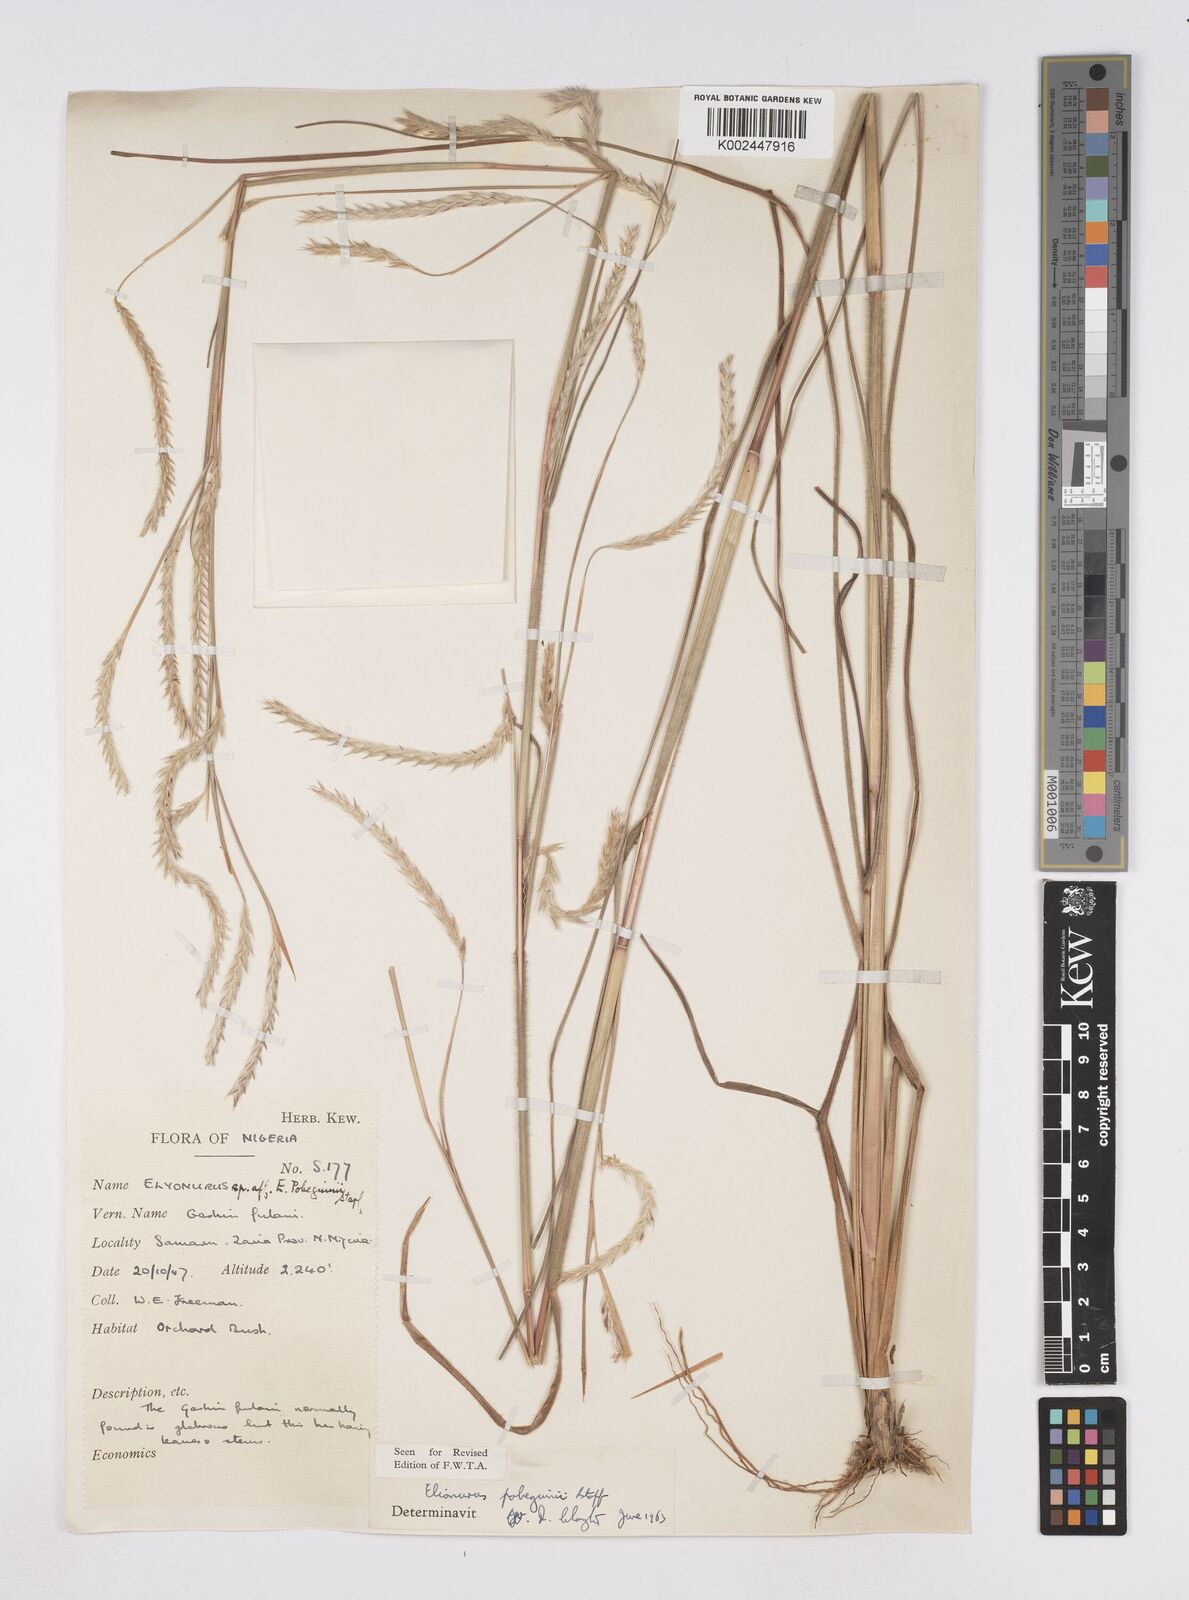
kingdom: Plantae
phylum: Tracheophyta
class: Liliopsida
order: Poales
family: Poaceae
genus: Elionurus
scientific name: Elionurus
